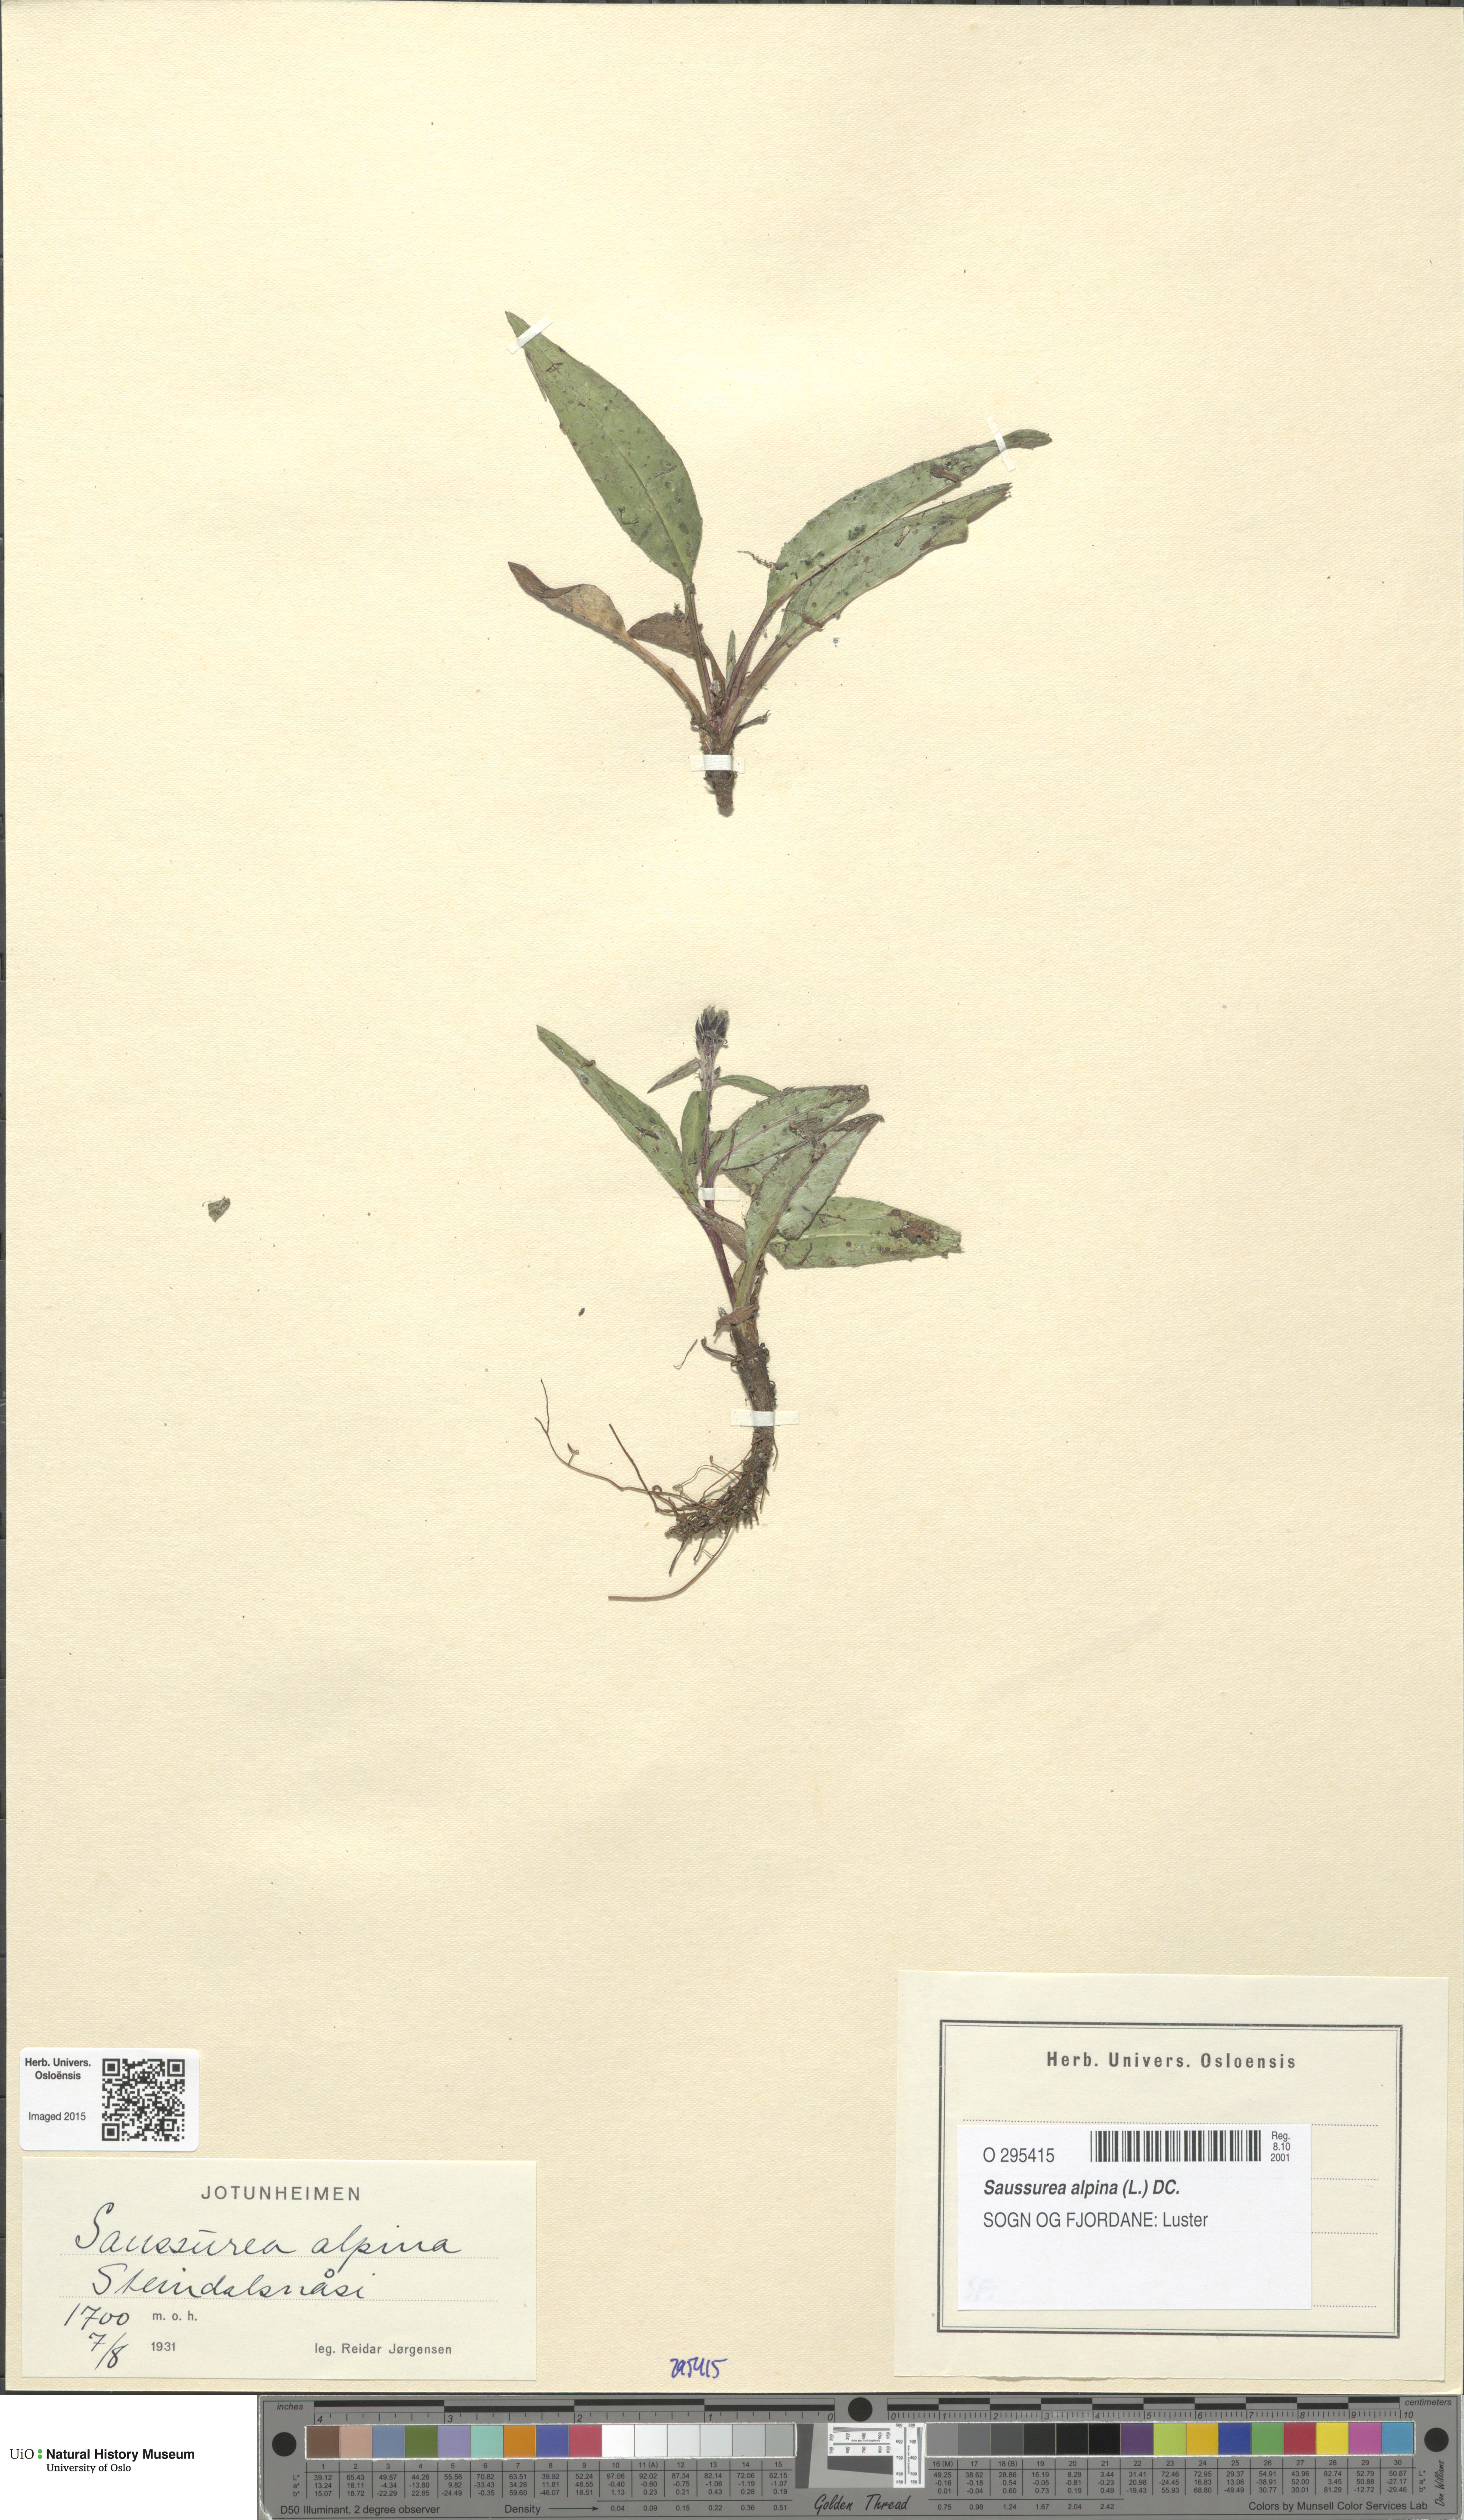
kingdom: Plantae
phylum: Tracheophyta
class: Magnoliopsida
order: Asterales
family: Asteraceae
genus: Saussurea
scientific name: Saussurea alpina
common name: Alpine saw-wort
